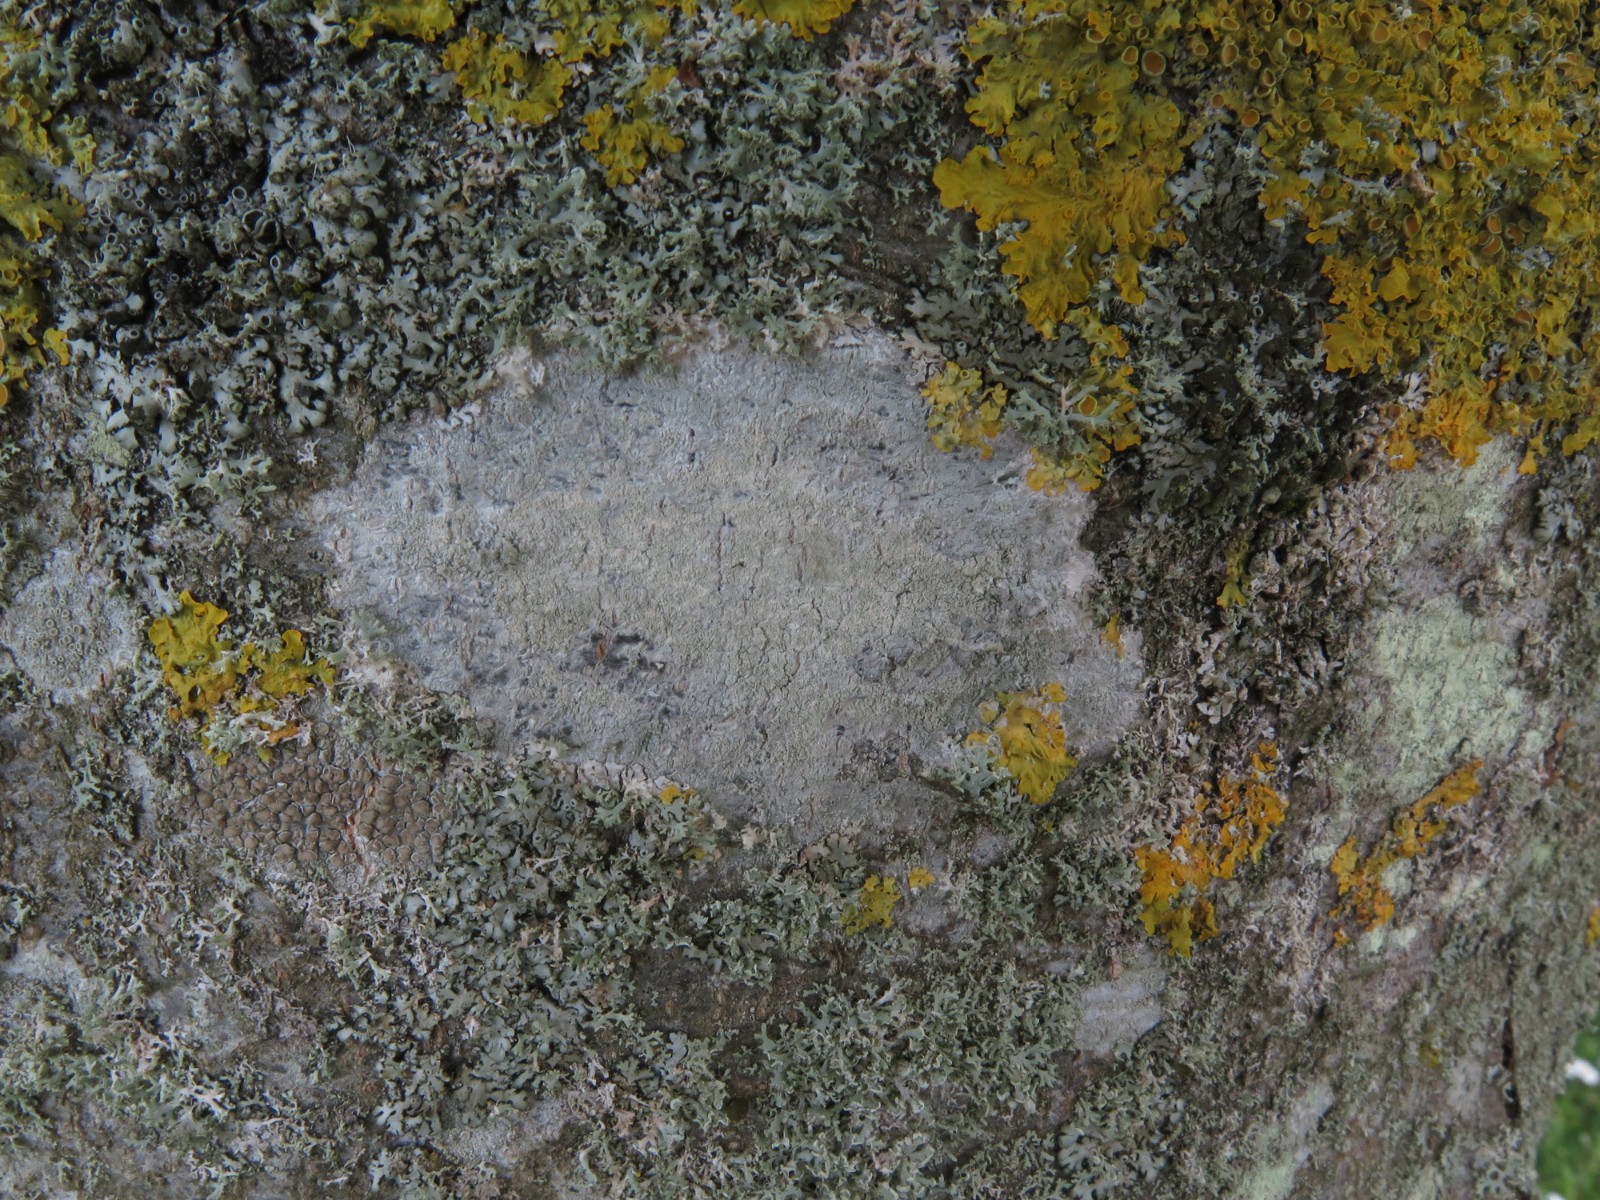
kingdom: Fungi
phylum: Ascomycota
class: Lecanoromycetes
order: Ostropales
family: Phlyctidaceae
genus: Phlyctis
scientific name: Phlyctis argena
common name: almindelig sølvlav
